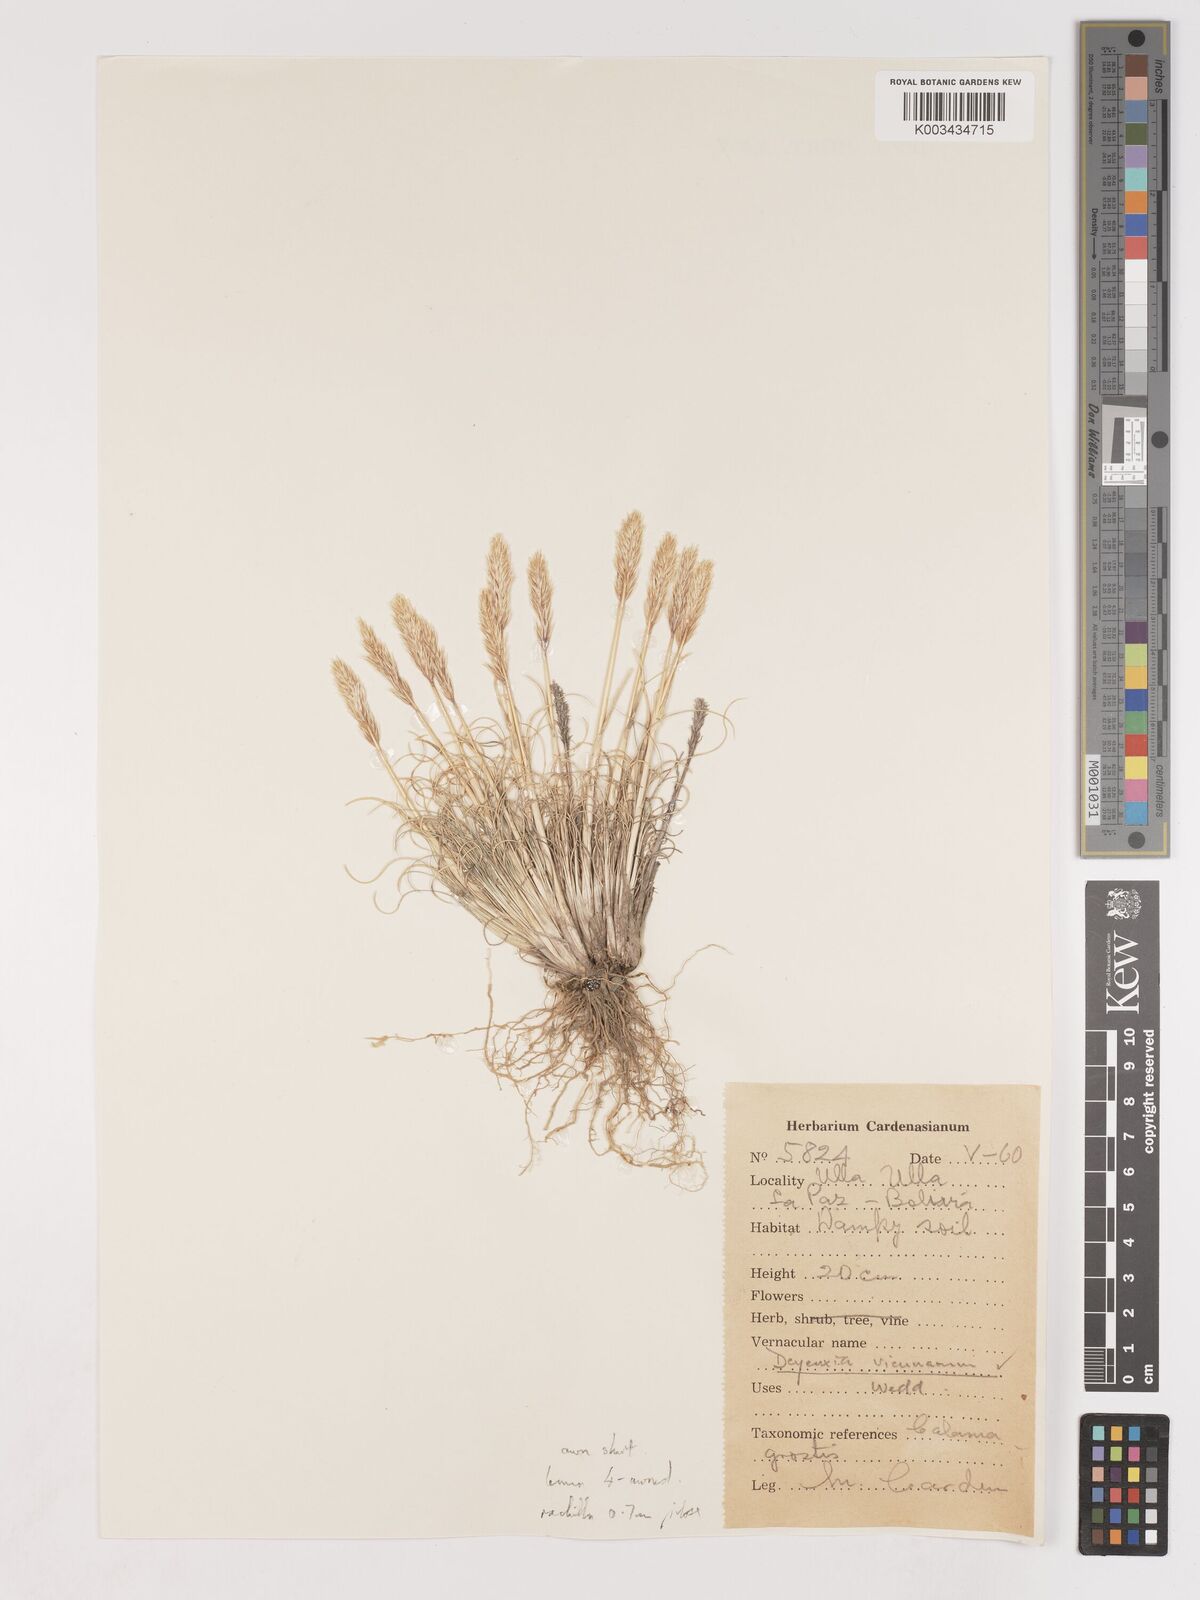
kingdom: Plantae
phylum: Tracheophyta
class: Liliopsida
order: Poales
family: Poaceae
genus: Cinnagrostis
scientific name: Cinnagrostis vicunarum
